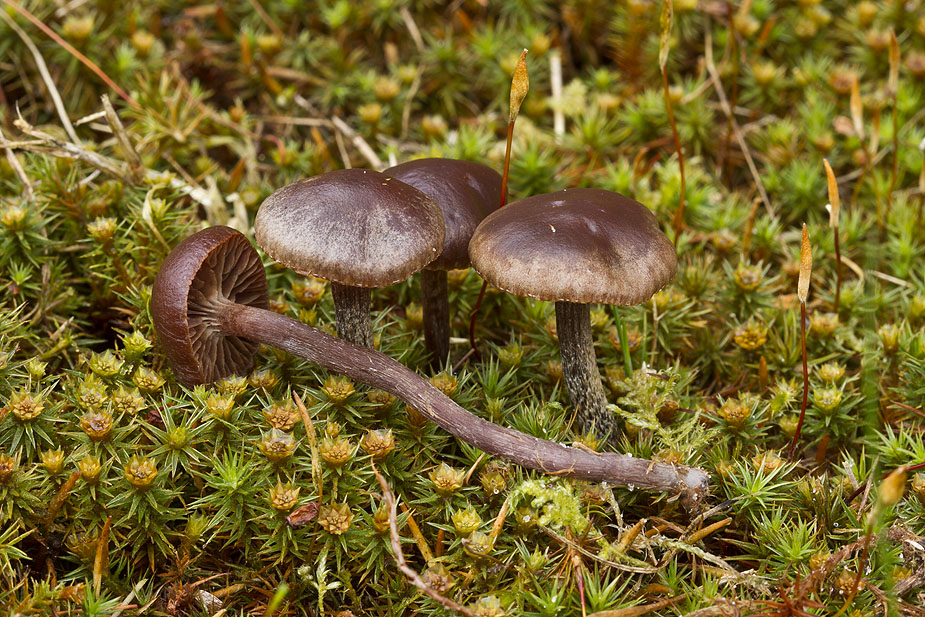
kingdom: Fungi
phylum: Basidiomycota
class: Agaricomycetes
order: Agaricales
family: Strophariaceae
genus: Deconica
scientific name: Deconica montana
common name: rødbrun stråhat
